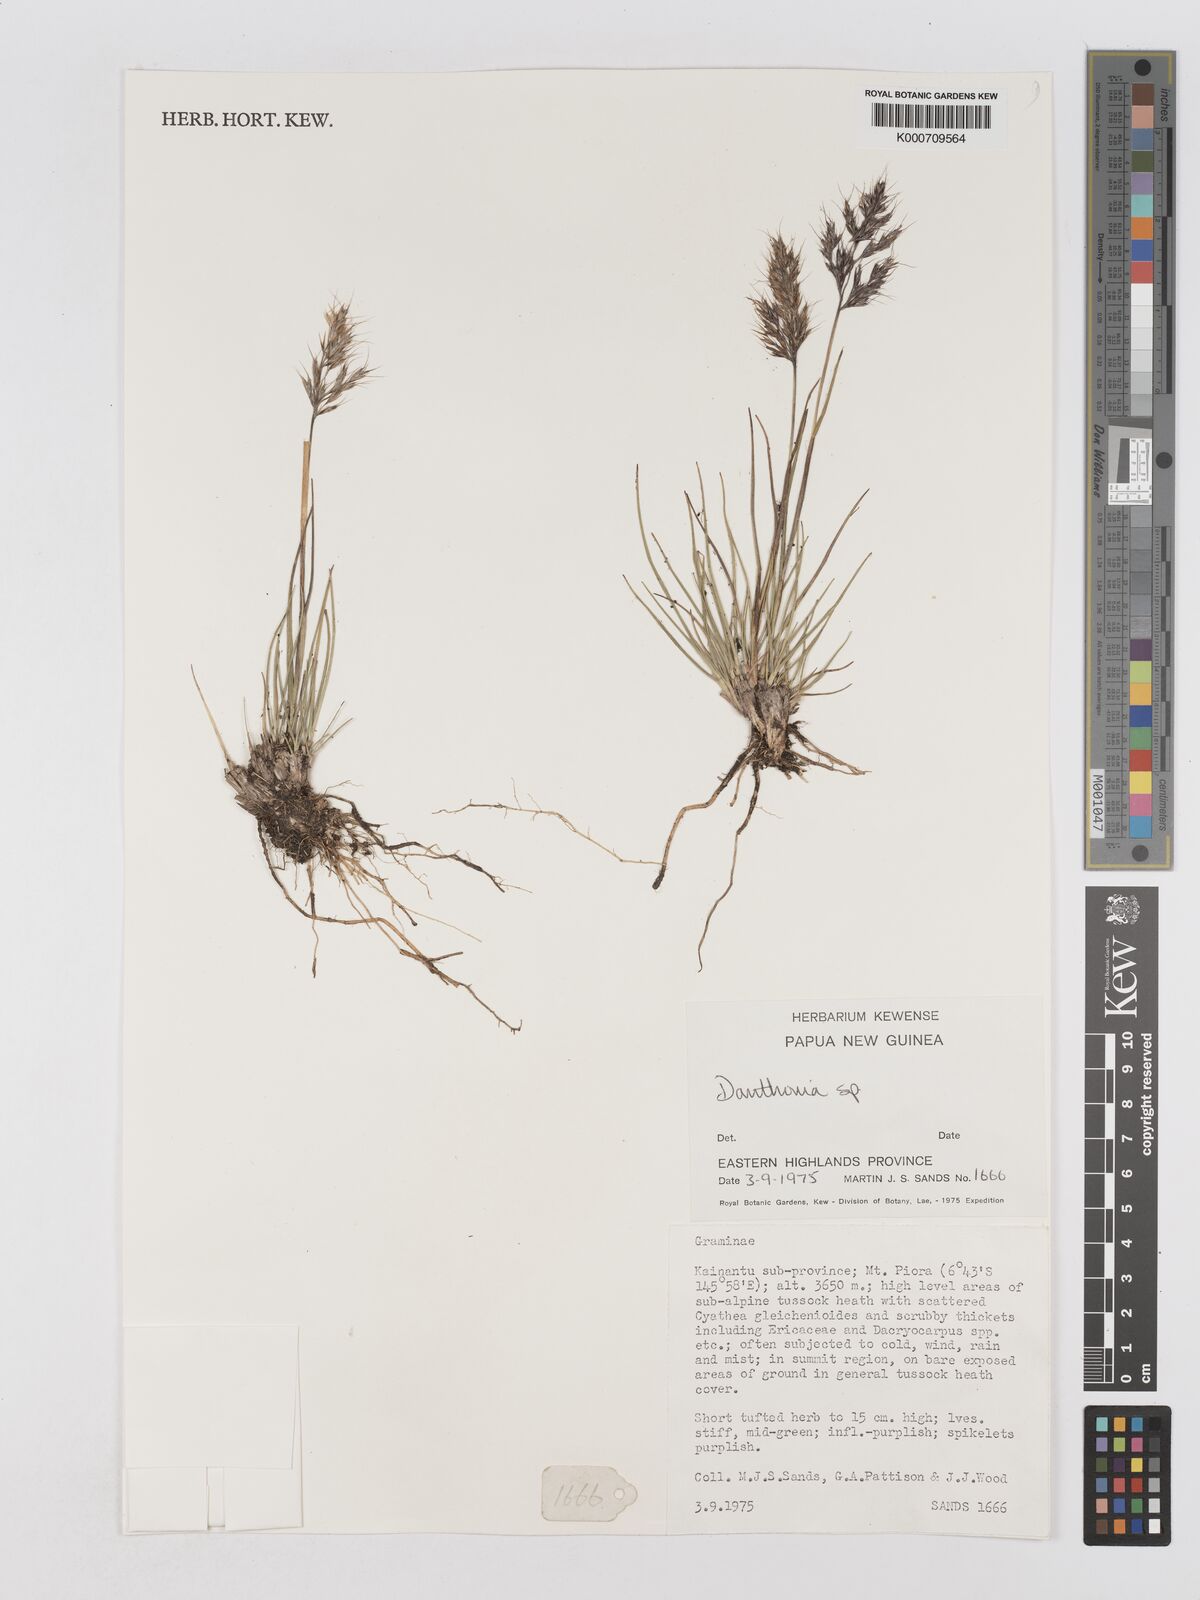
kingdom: Plantae
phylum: Tracheophyta
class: Liliopsida
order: Poales
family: Poaceae
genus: Chimaerochloa
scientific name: Chimaerochloa archboldii
